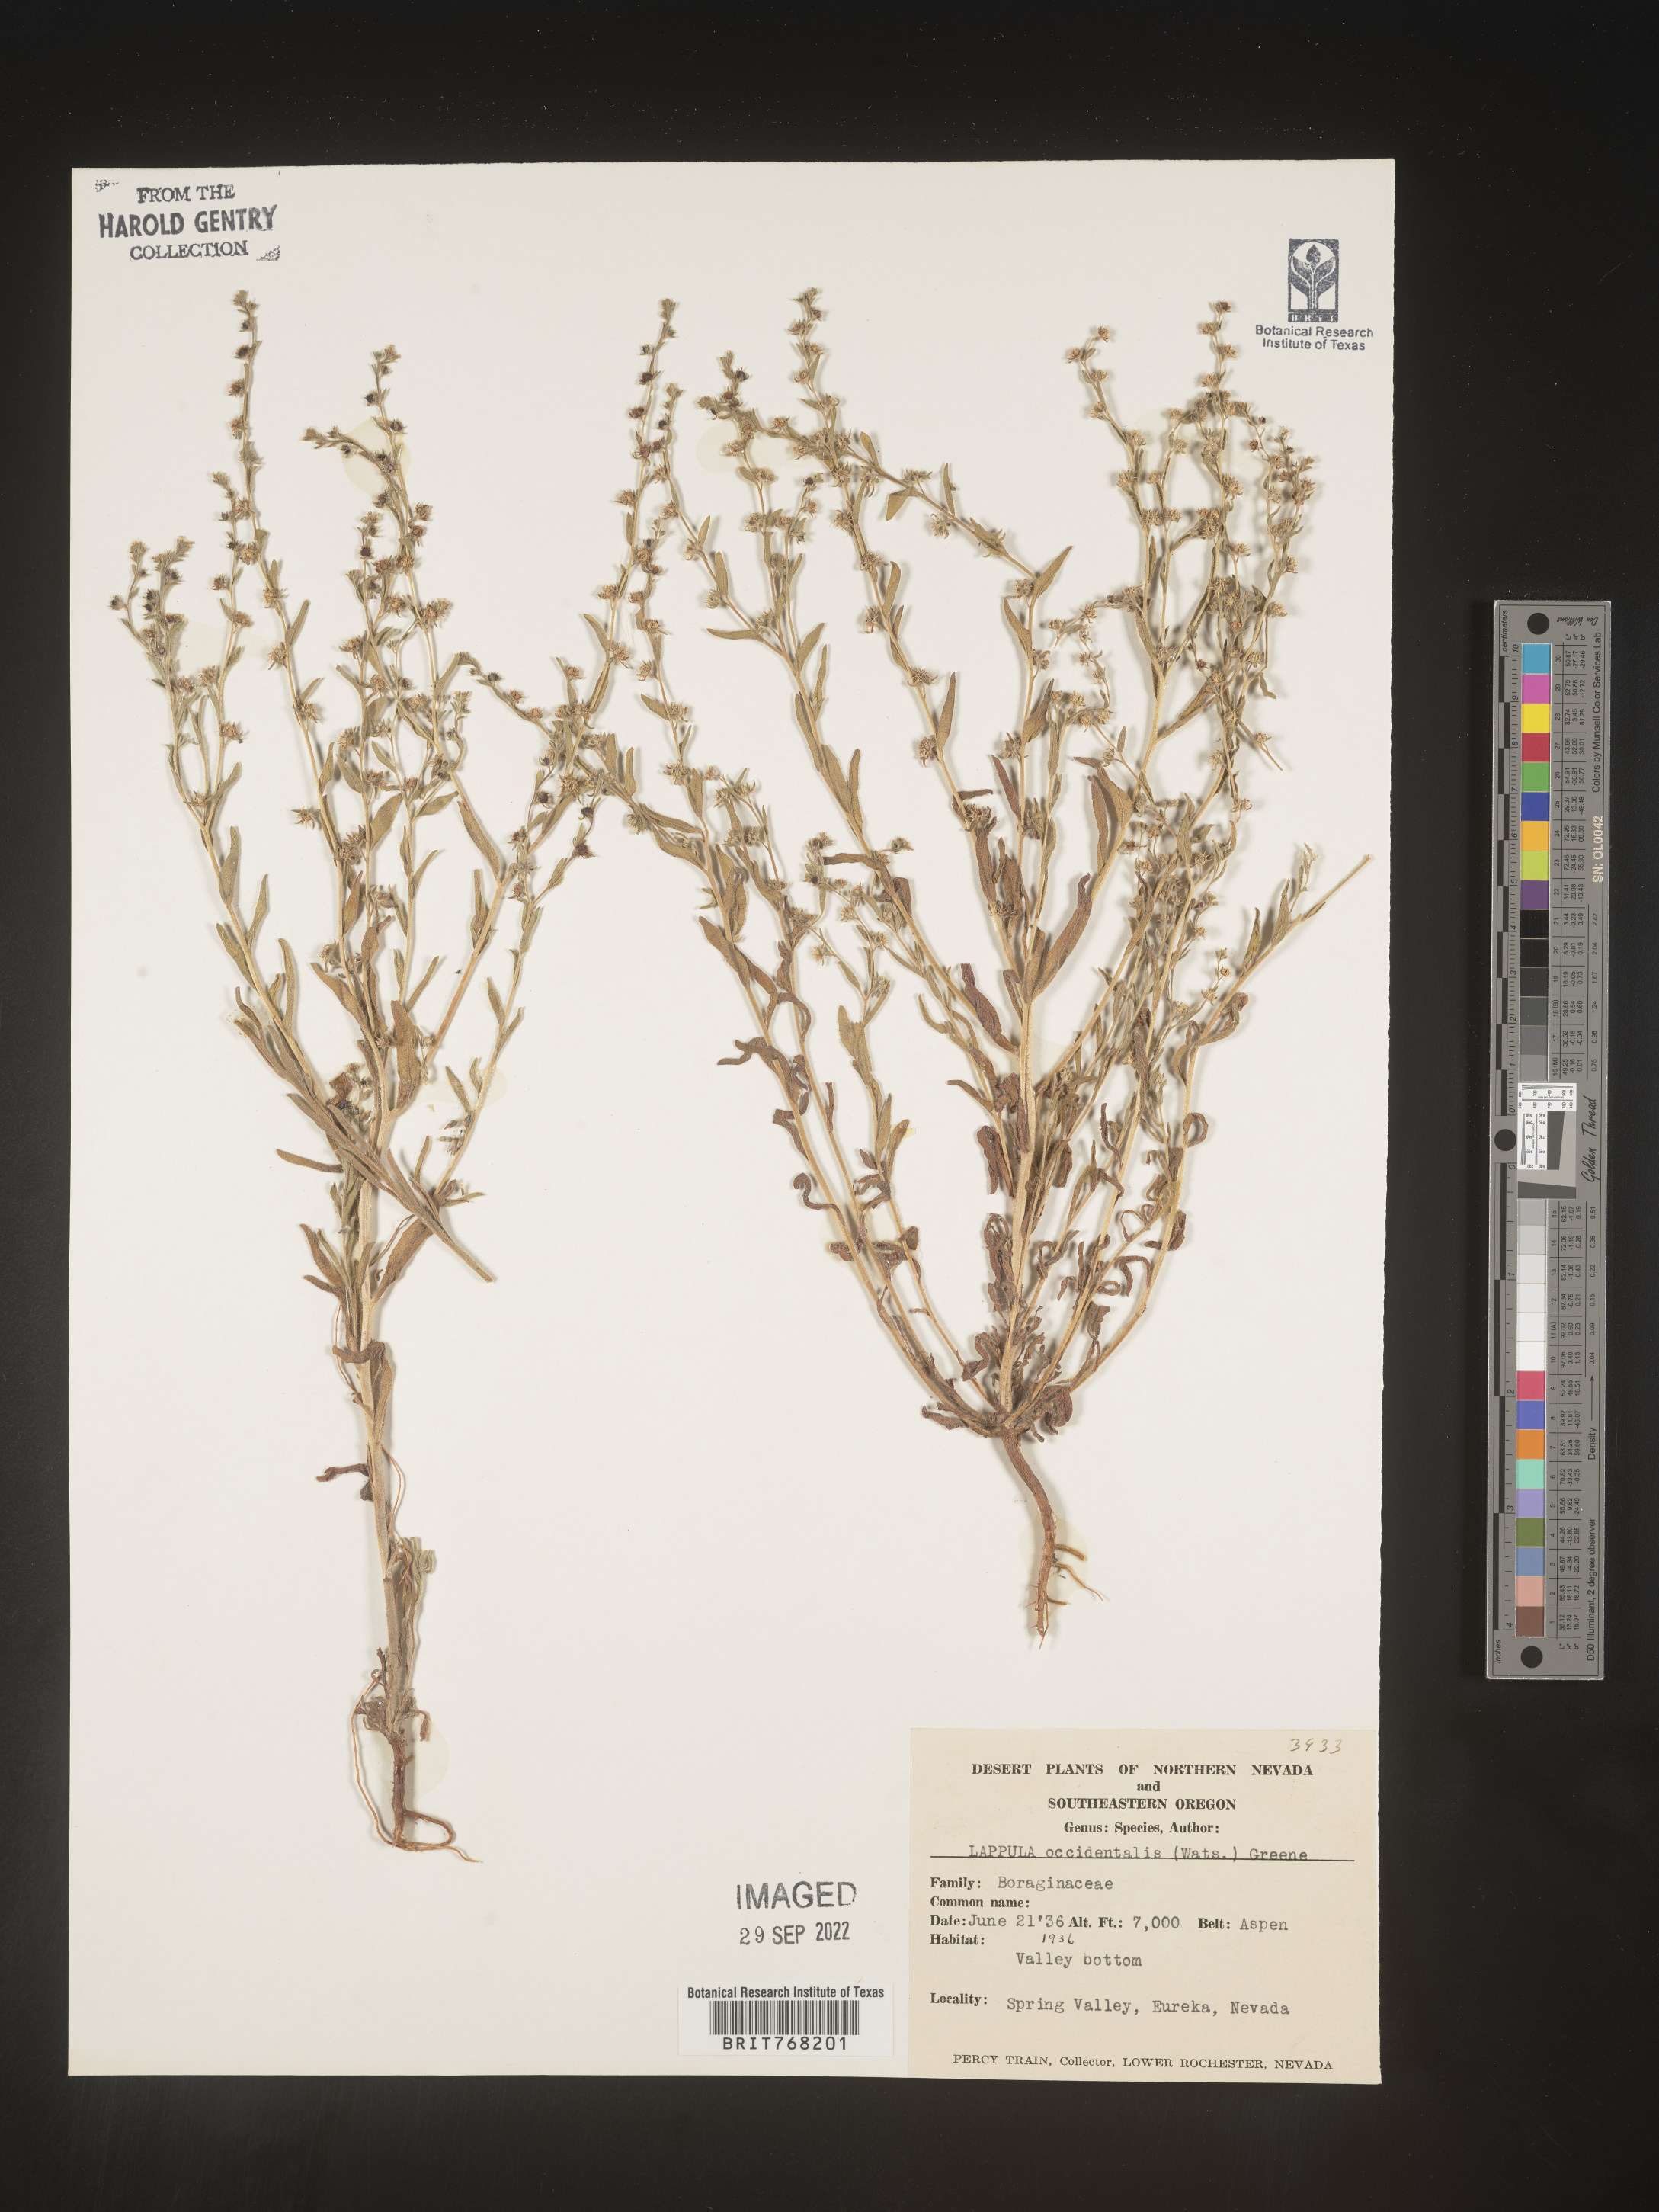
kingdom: Plantae
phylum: Tracheophyta
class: Magnoliopsida
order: Boraginales
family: Boraginaceae
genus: Lappula
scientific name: Lappula
